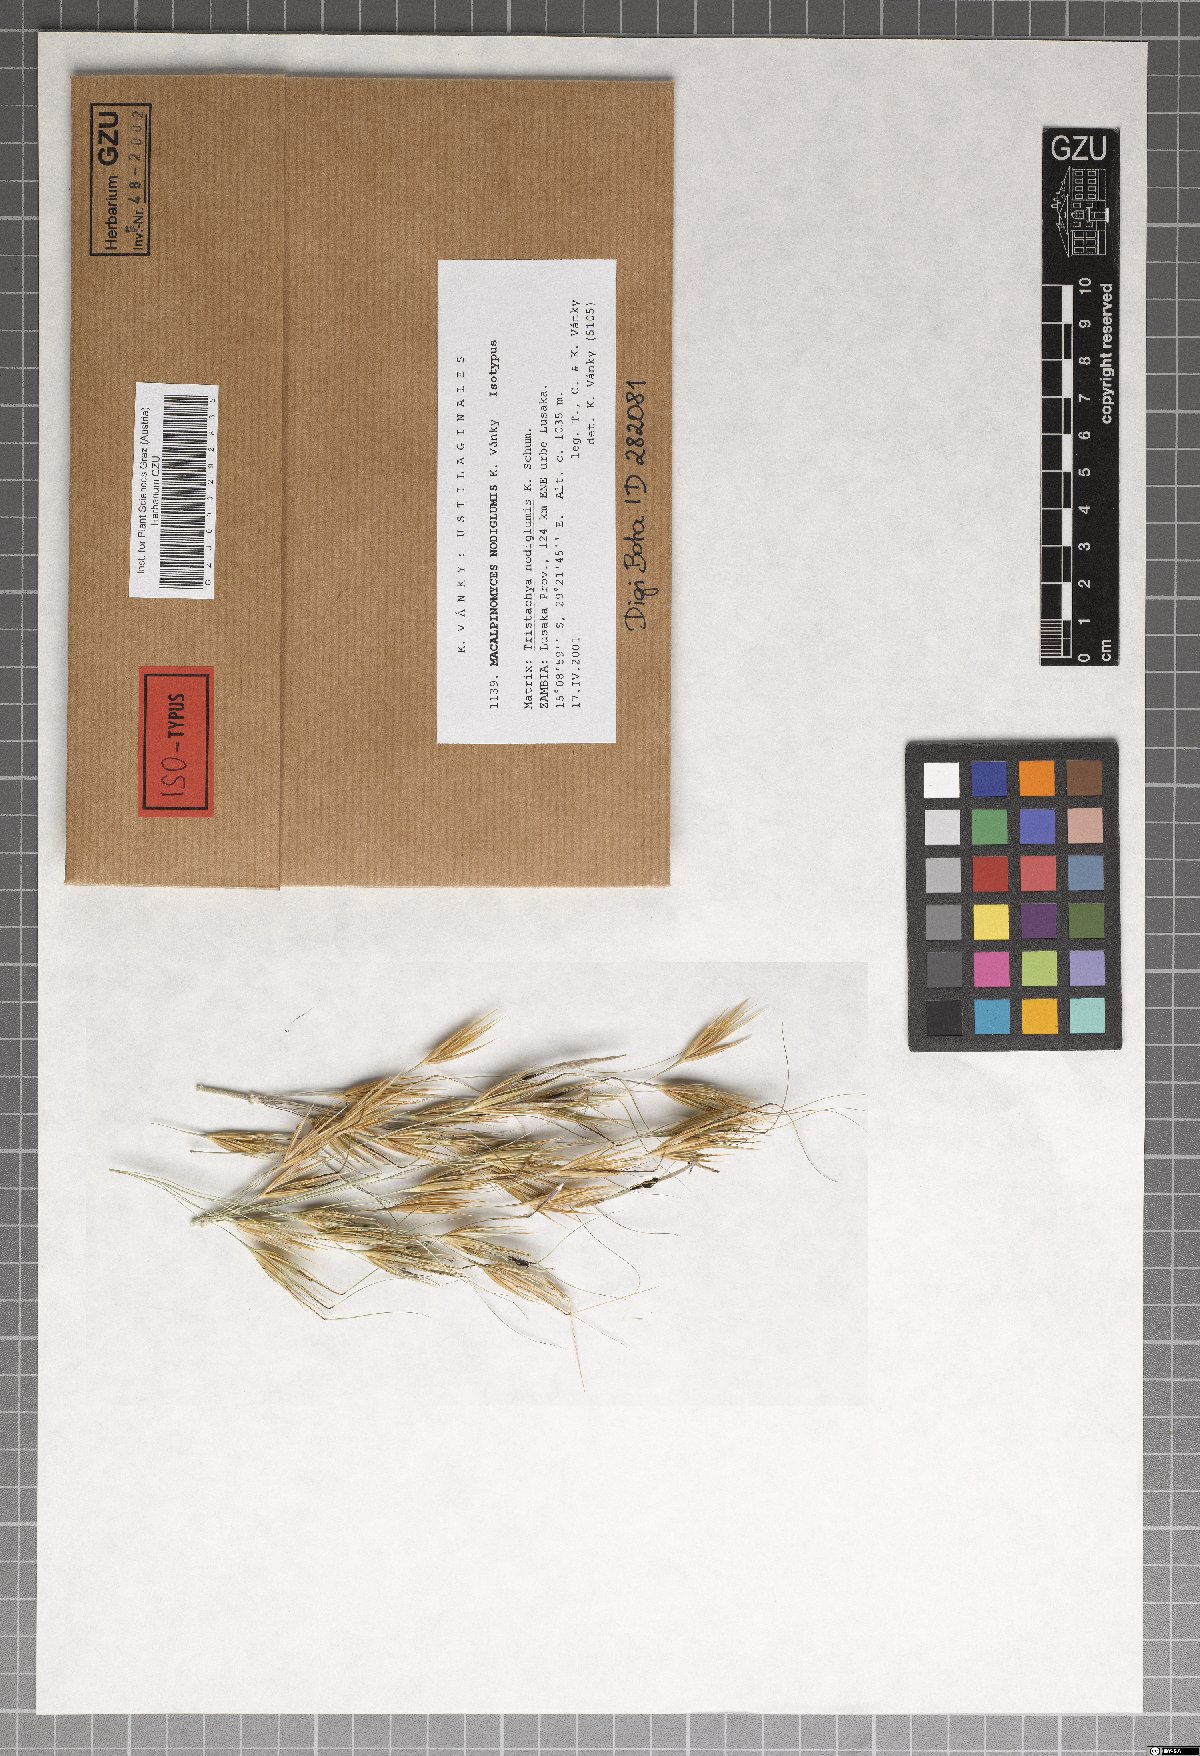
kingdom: Fungi
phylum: Basidiomycota
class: Ustilaginomycetes
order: Ustilaginales
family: Ustilaginaceae
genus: Macalpinomyces
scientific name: Macalpinomyces nodiglumis
